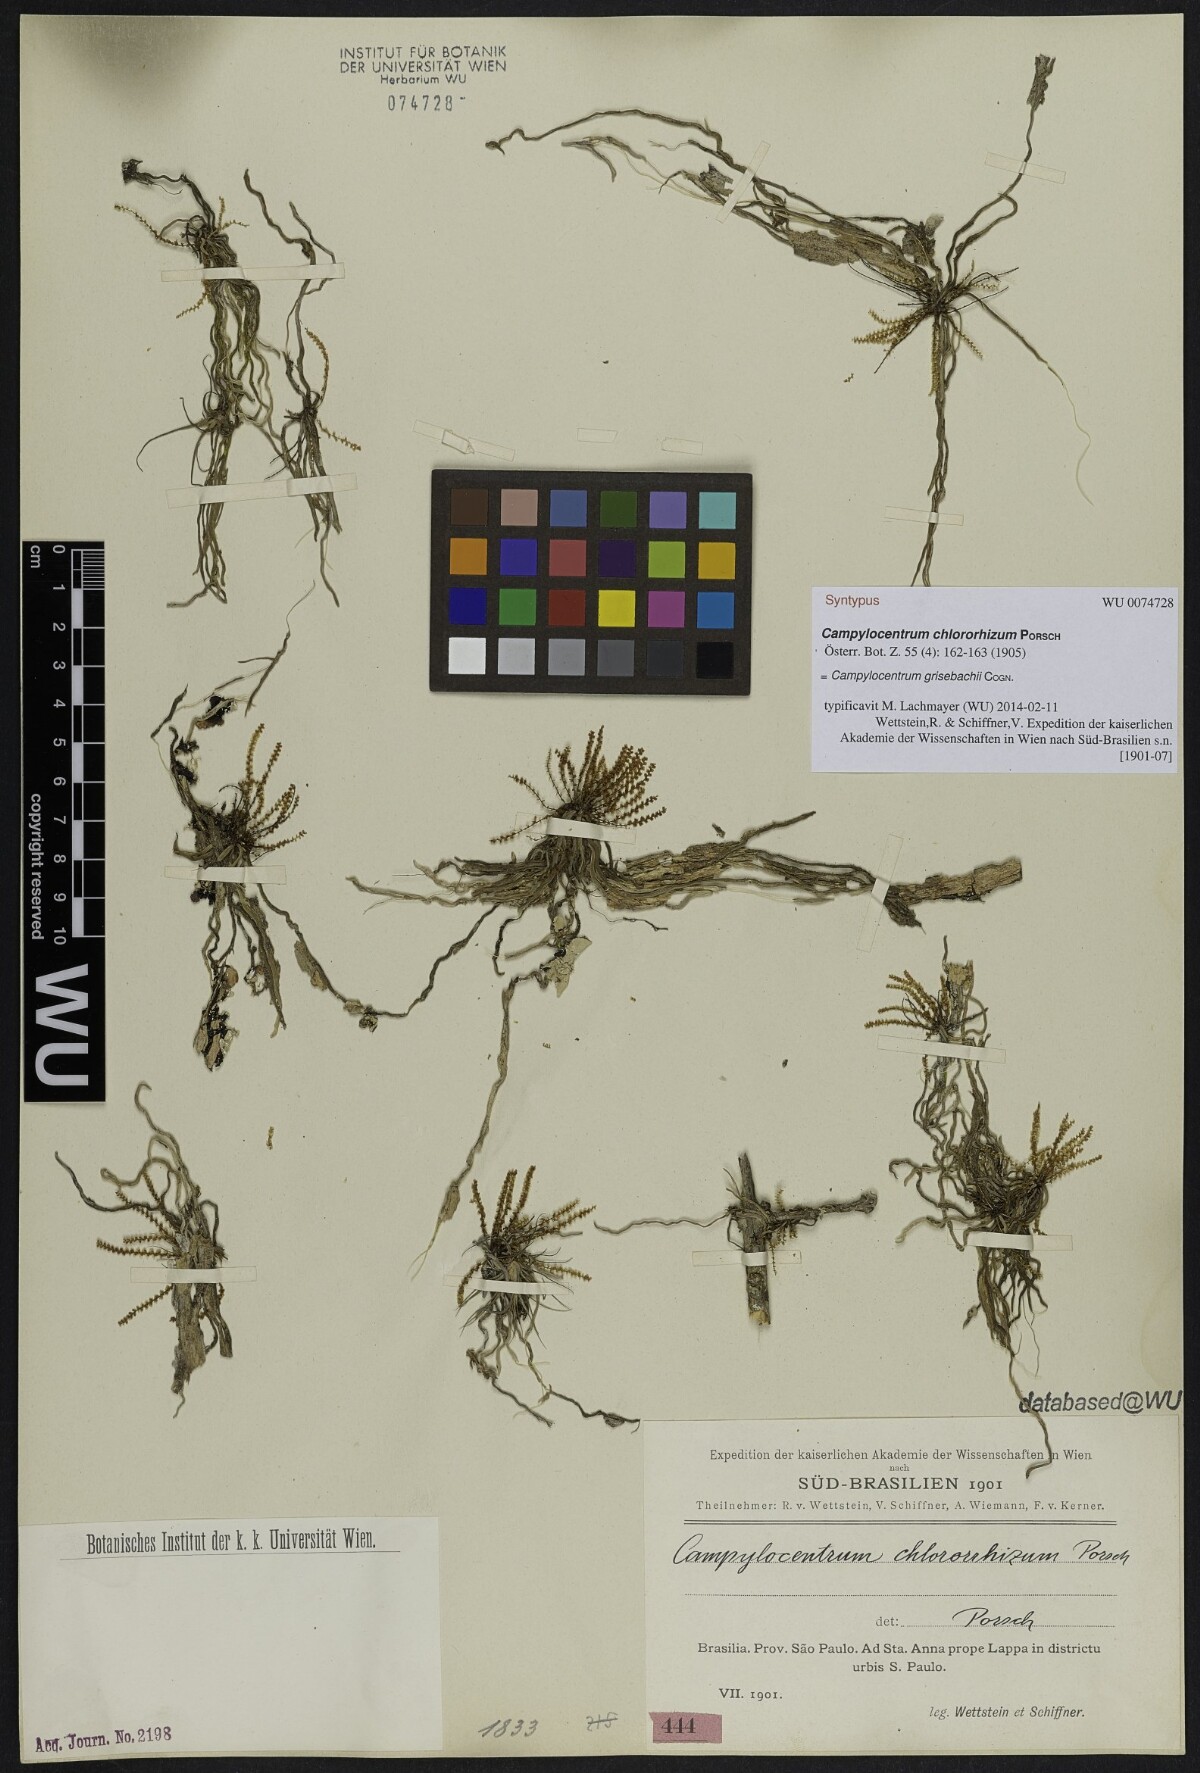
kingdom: Plantae
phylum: Tracheophyta
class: Liliopsida
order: Asparagales
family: Orchidaceae
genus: Campylocentrum
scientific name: Campylocentrum grisebachii
